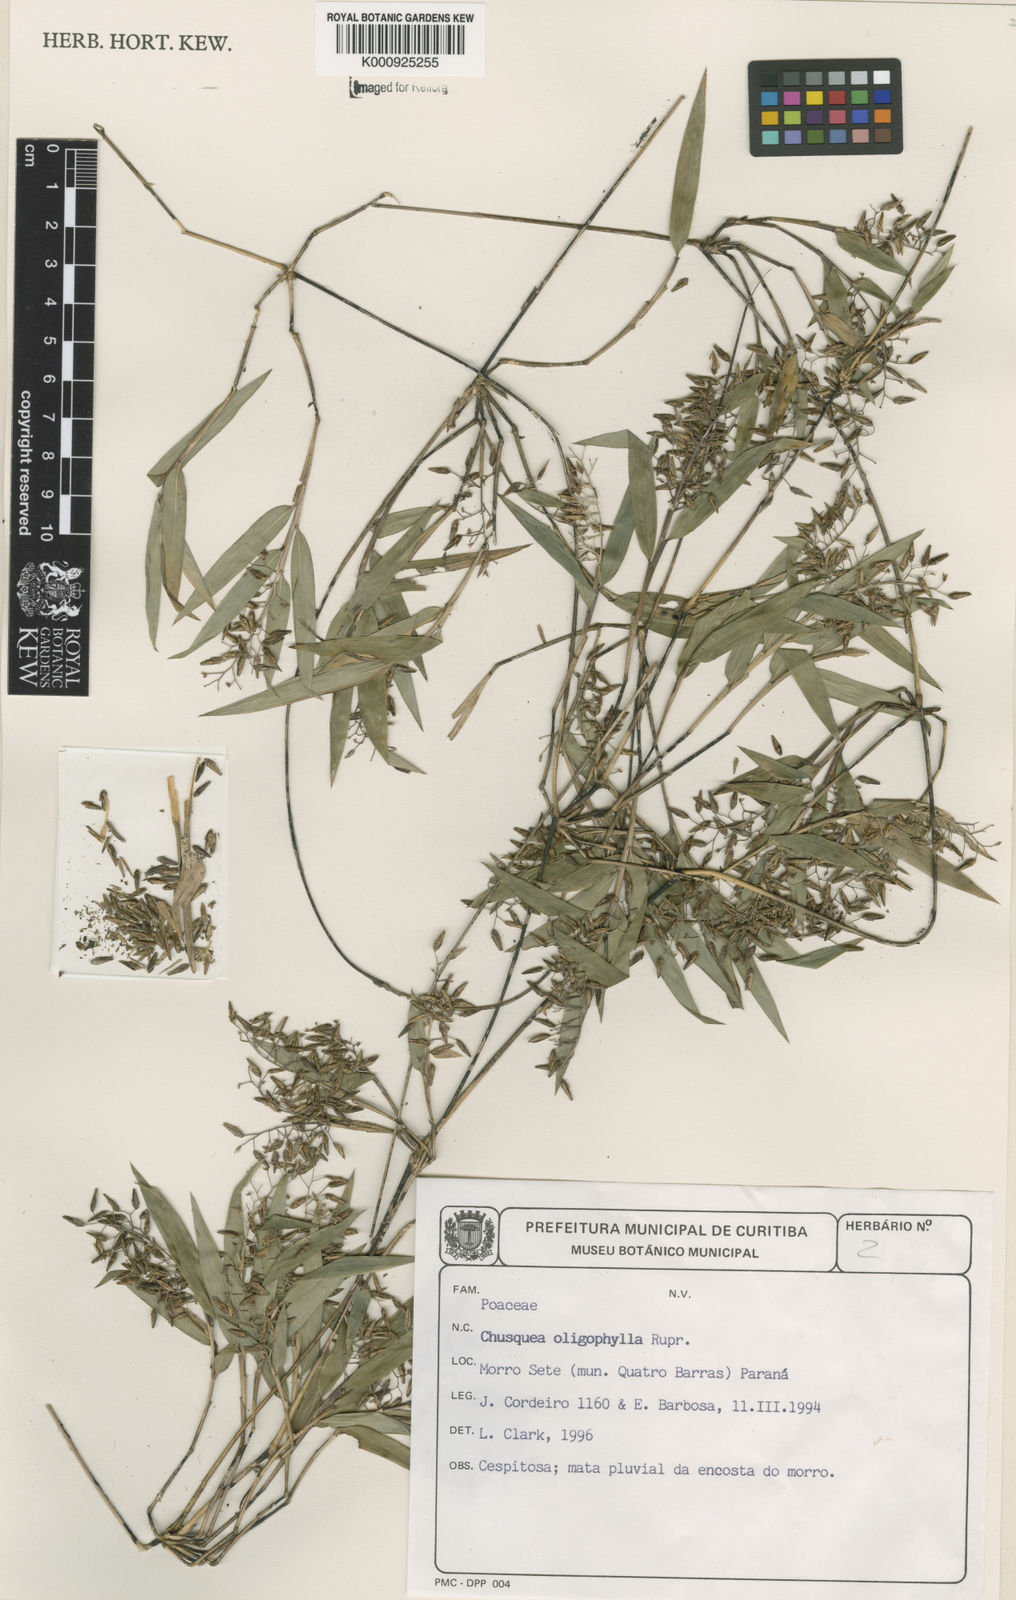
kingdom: Plantae
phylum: Tracheophyta
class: Liliopsida
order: Poales
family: Poaceae
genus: Chusquea
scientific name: Chusquea oligophylla
